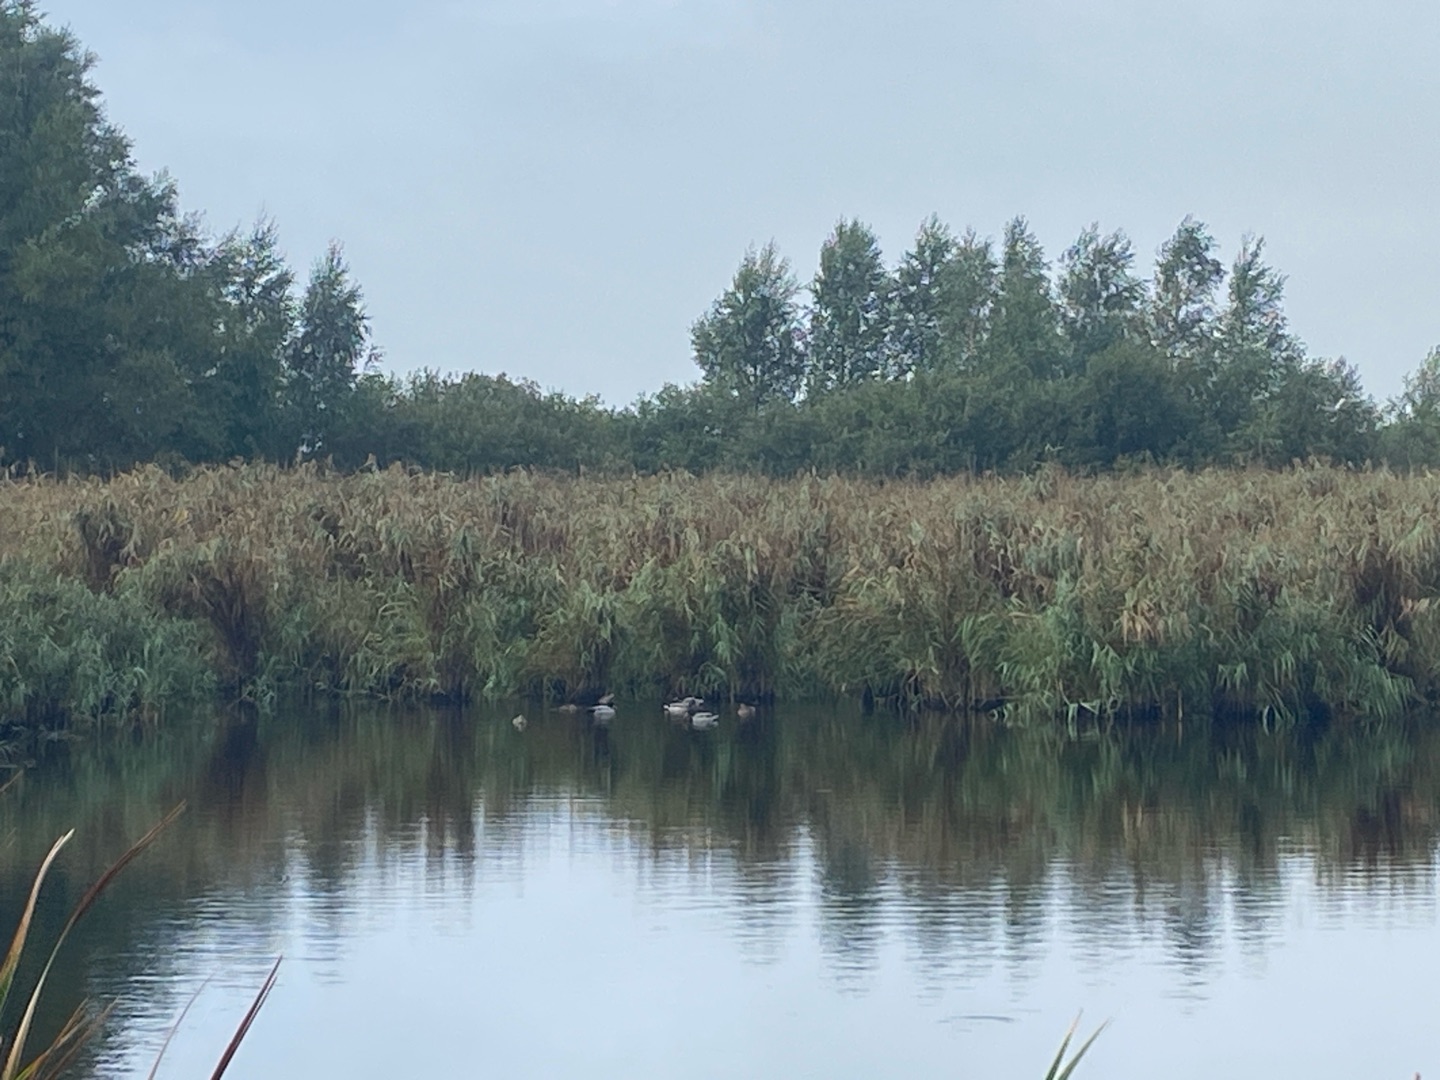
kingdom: Animalia
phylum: Chordata
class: Aves
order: Anseriformes
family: Anatidae
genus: Anas
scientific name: Anas platyrhynchos
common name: Gråand
